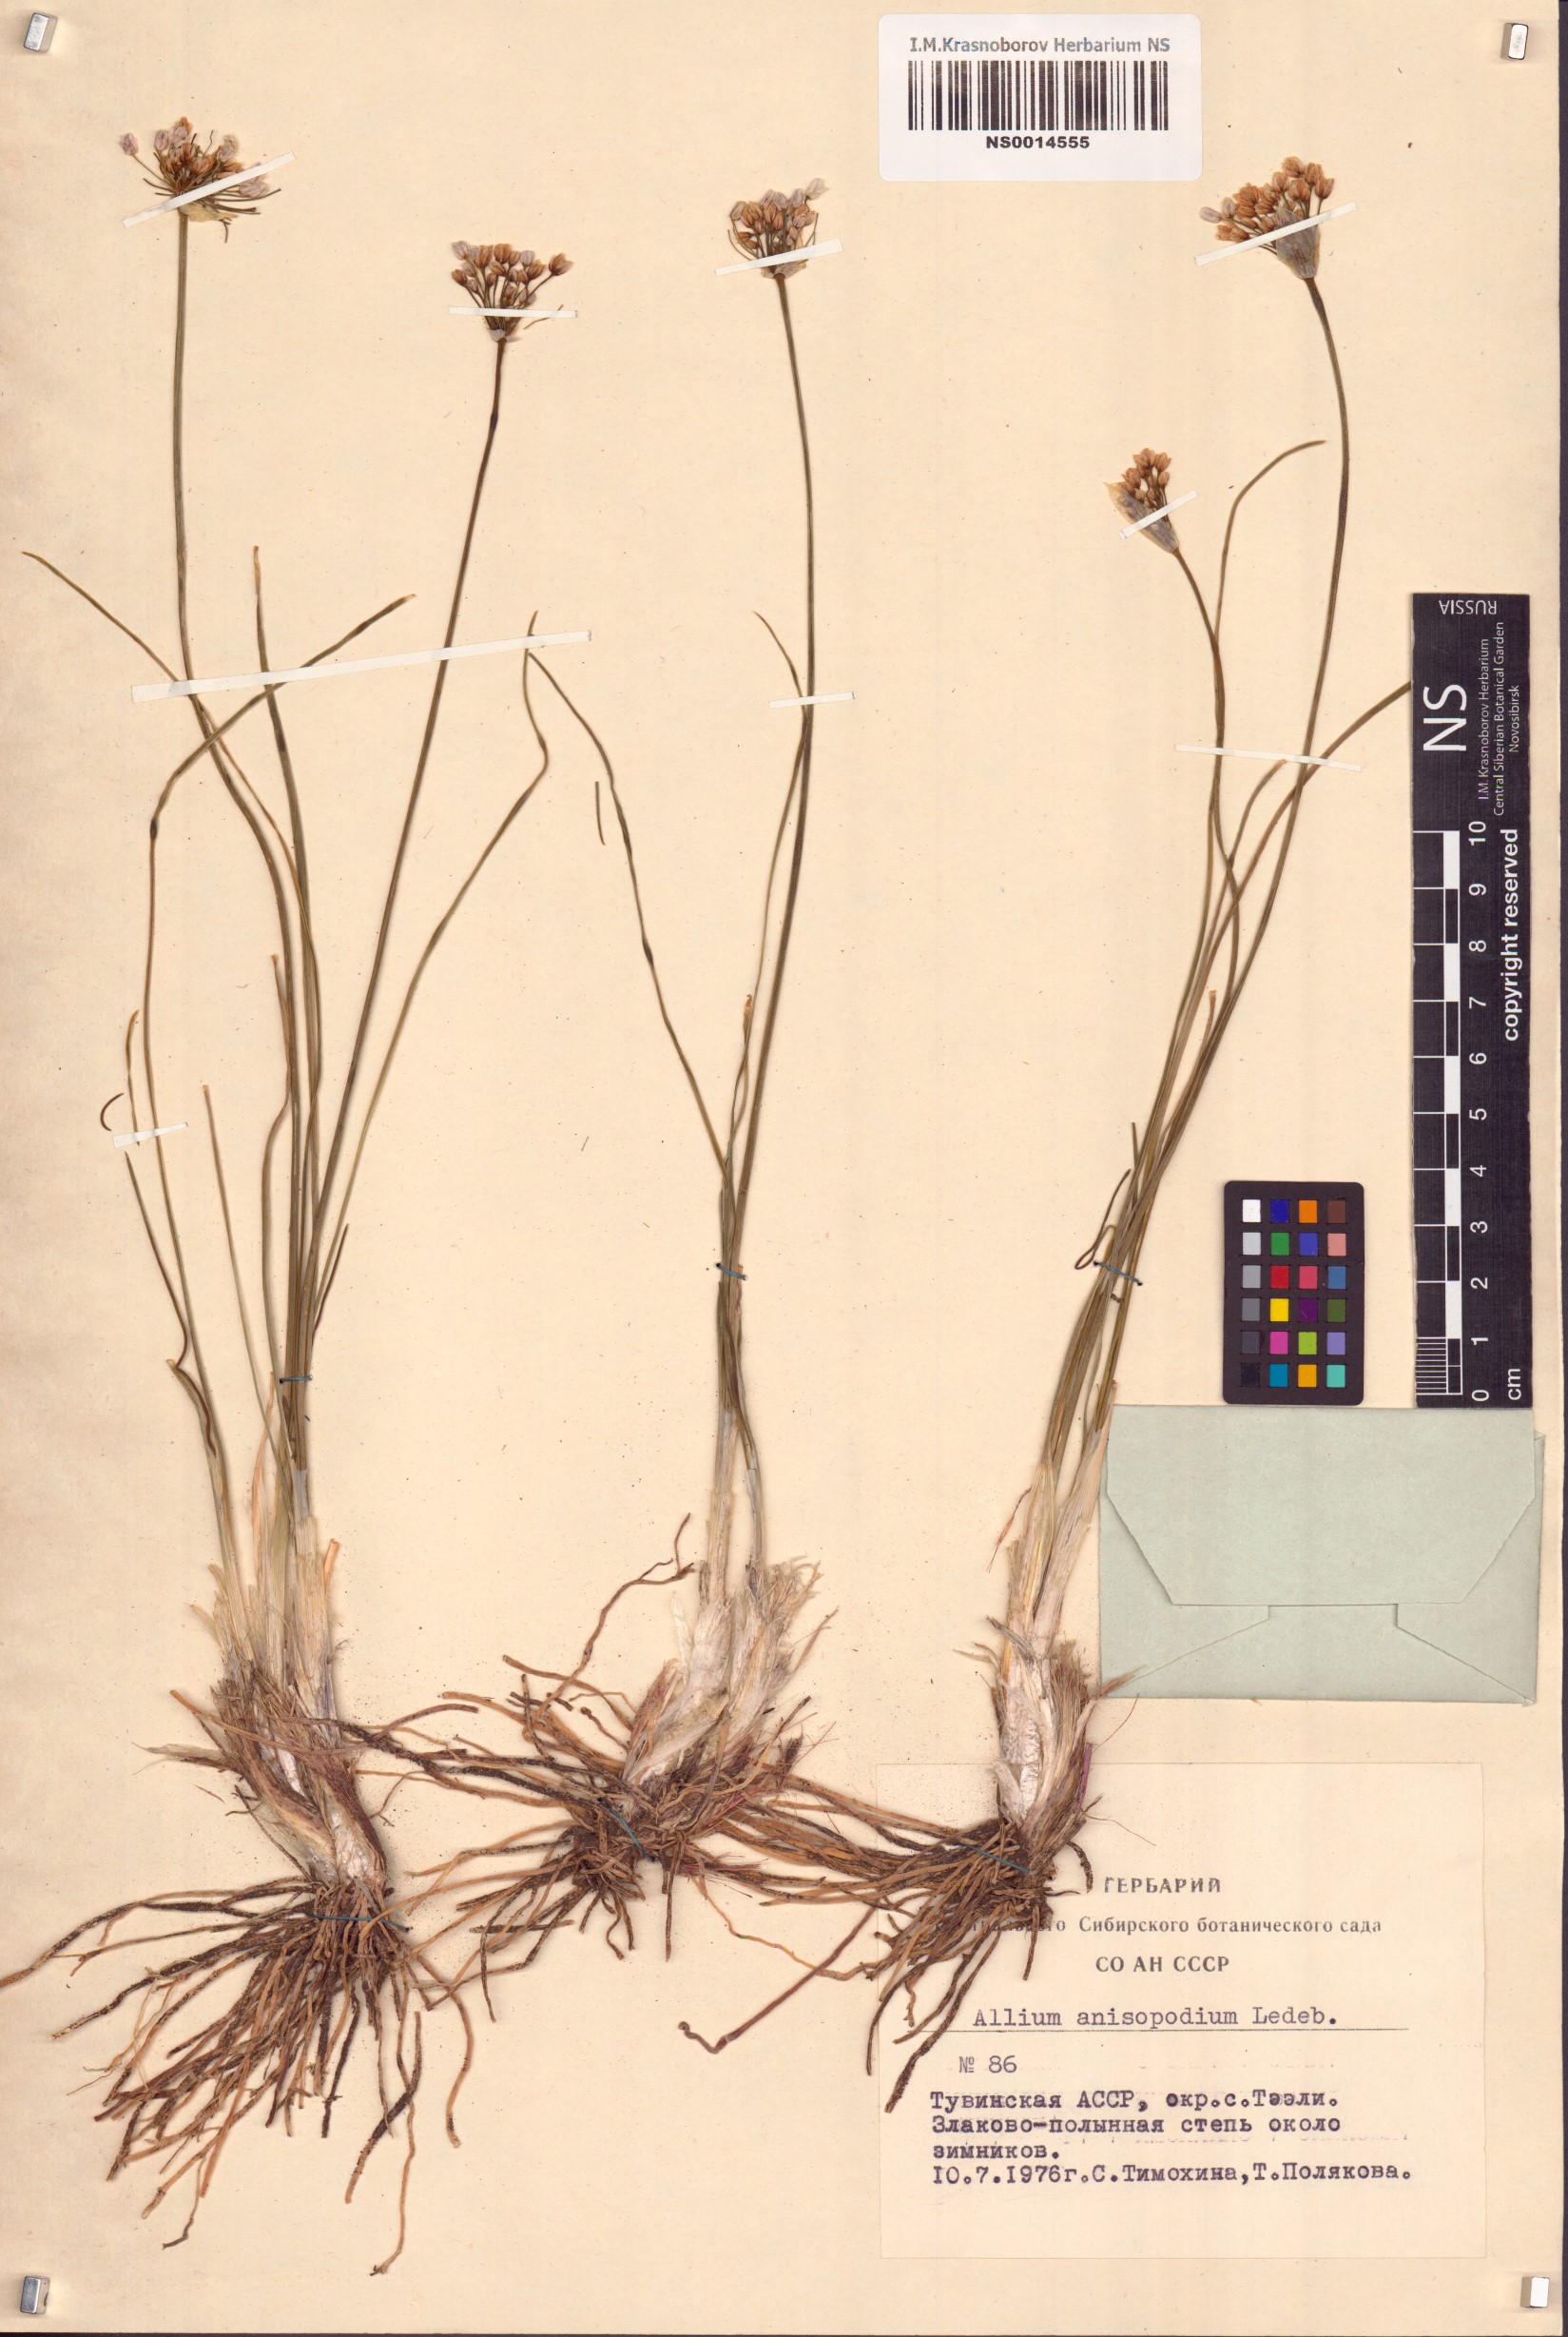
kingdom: Plantae
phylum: Tracheophyta
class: Liliopsida
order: Asparagales
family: Amaryllidaceae
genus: Allium
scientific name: Allium anisopodium
